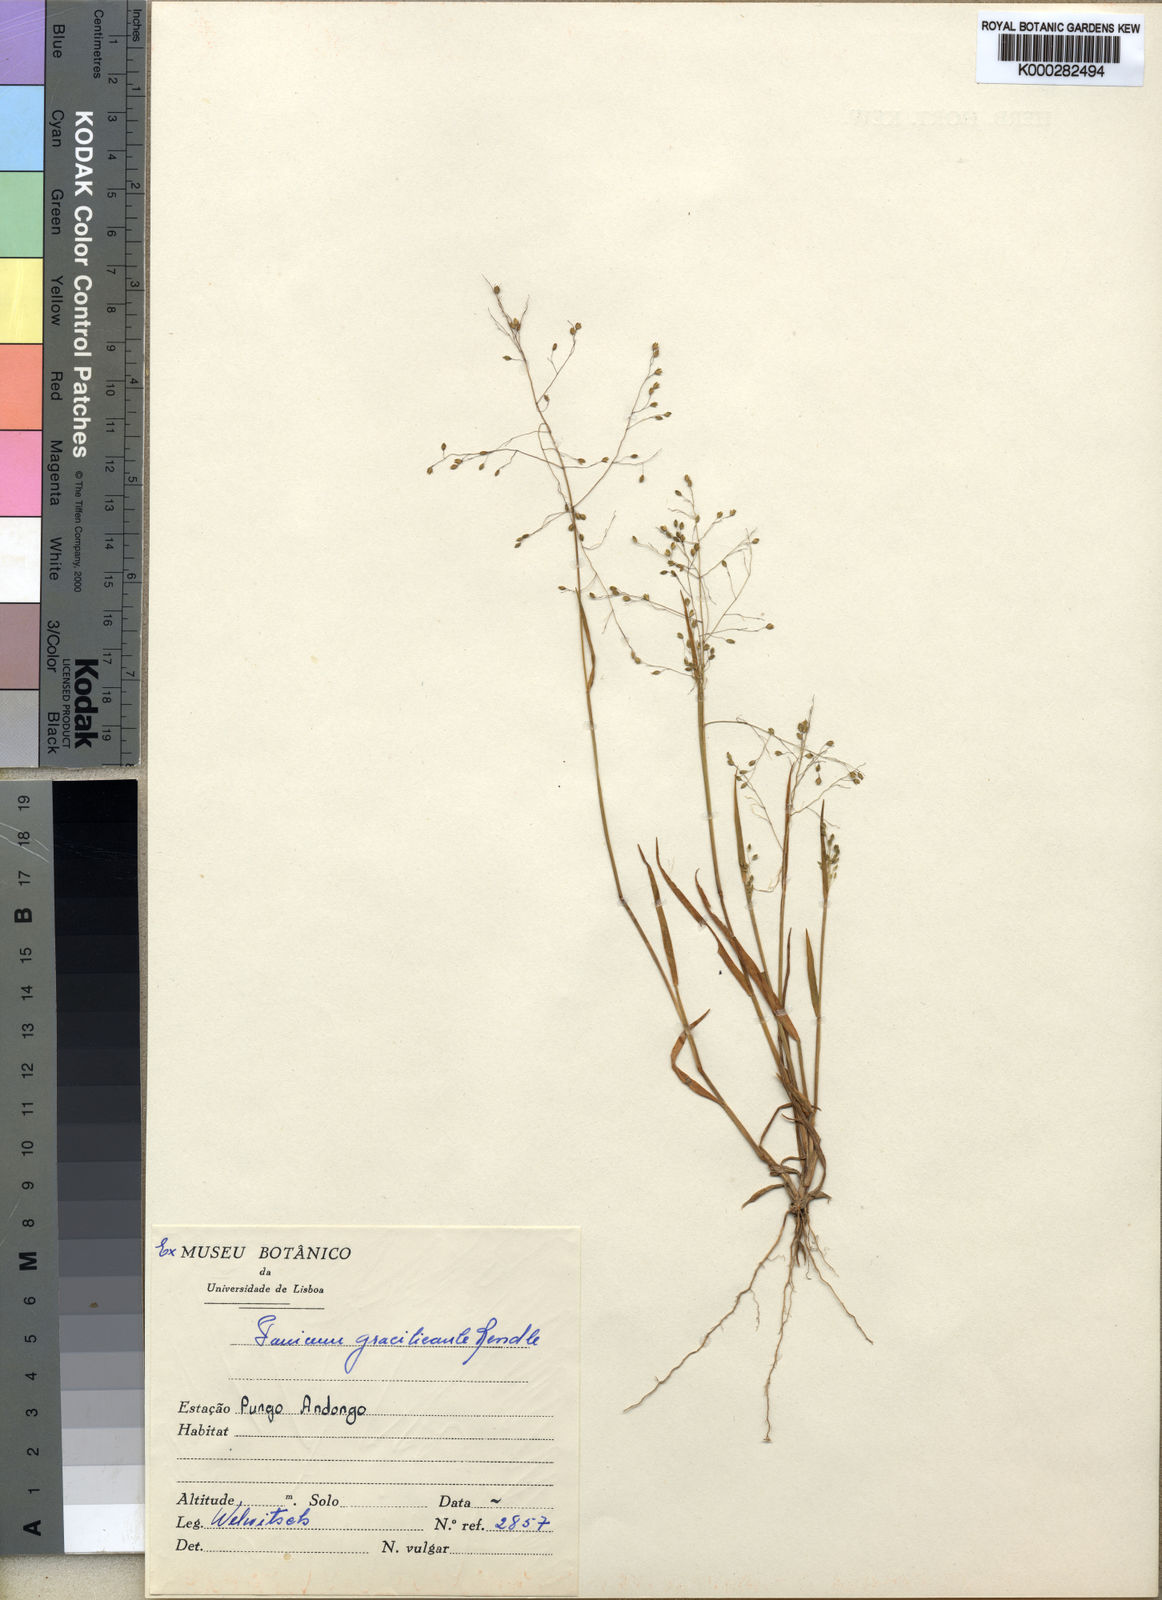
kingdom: Plantae
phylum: Tracheophyta
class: Liliopsida
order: Poales
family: Poaceae
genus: Trichanthecium
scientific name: Trichanthecium gracilicaule
